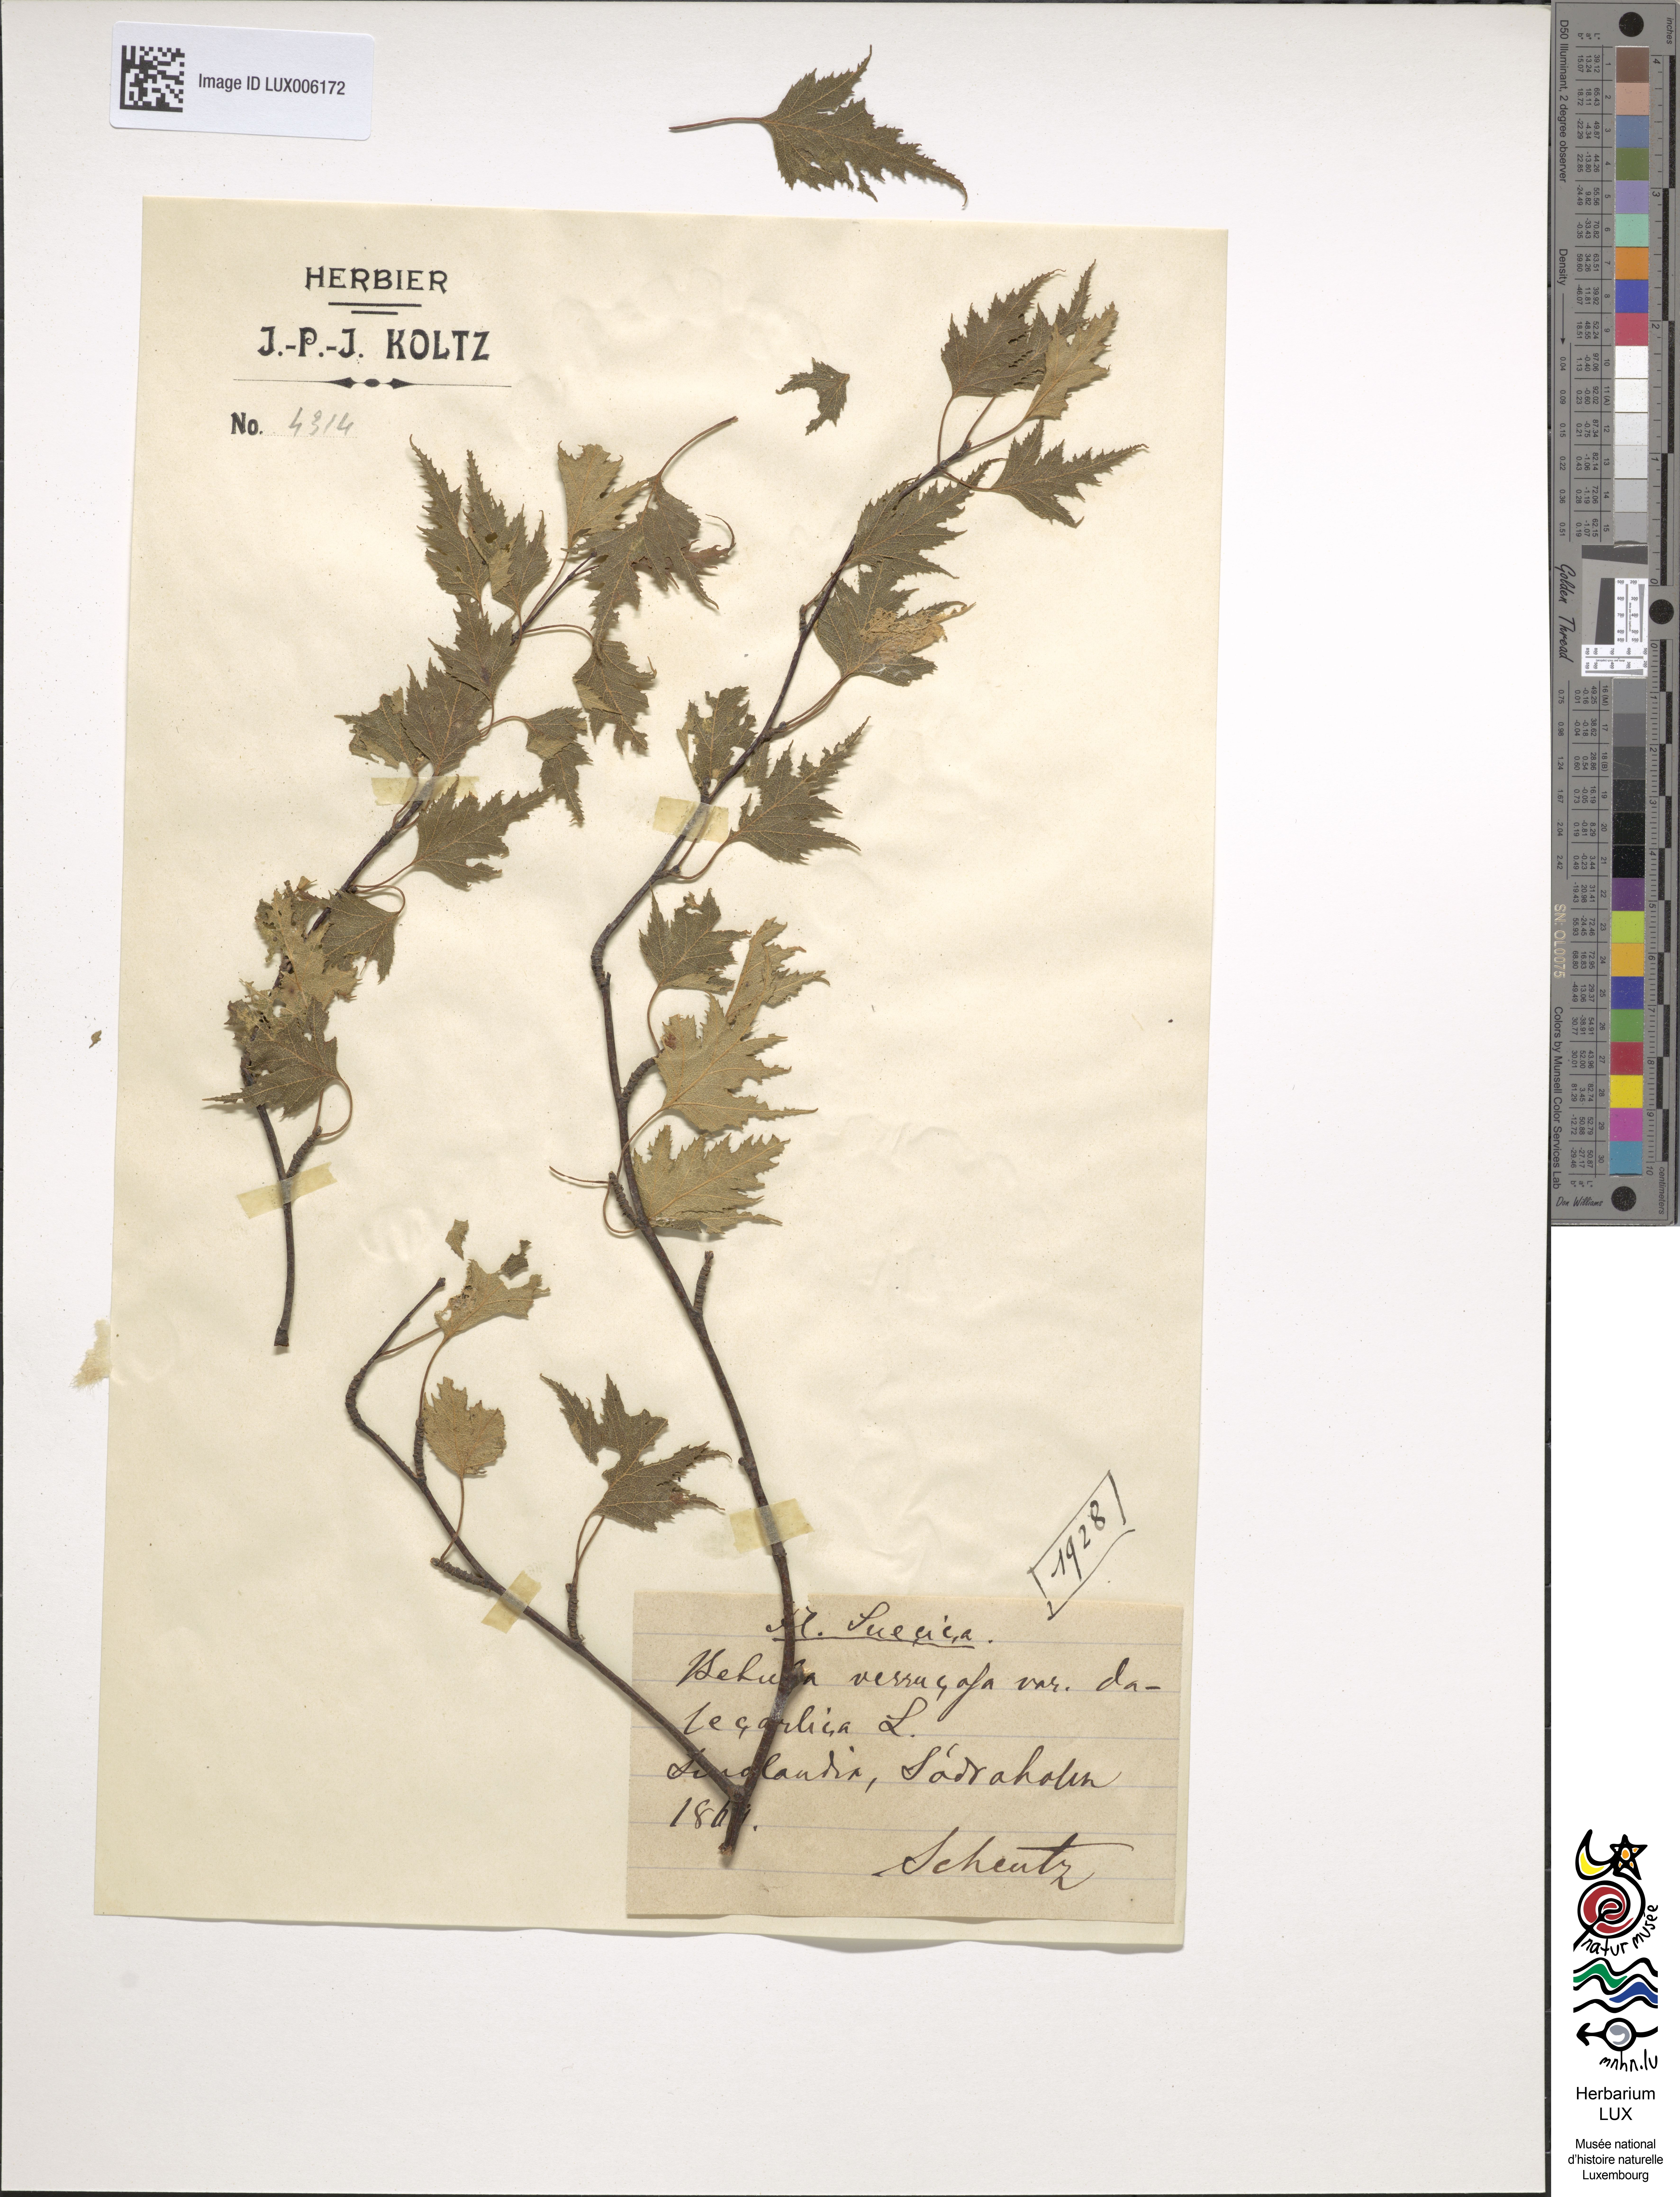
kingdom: Plantae
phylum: Tracheophyta
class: Magnoliopsida
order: Fagales
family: Betulaceae
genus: Betula
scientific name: Betula pendula
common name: Silver birch
